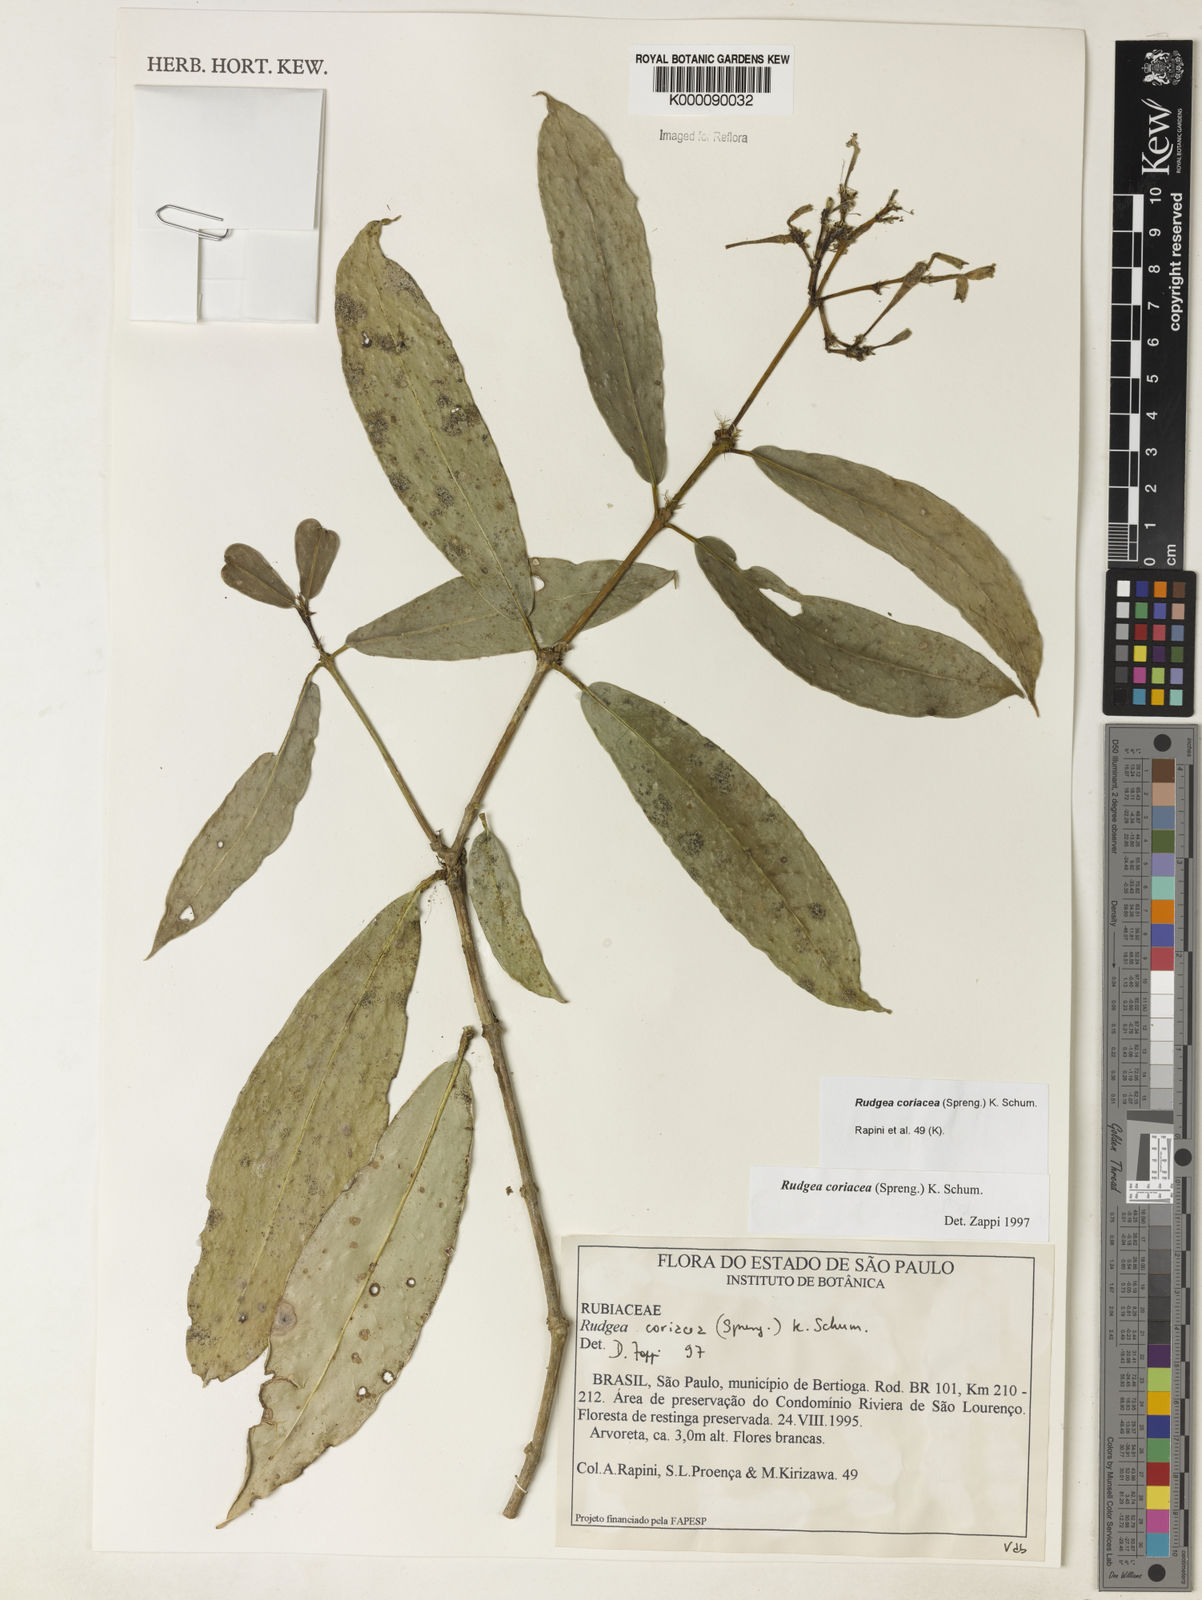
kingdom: Plantae
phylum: Tracheophyta
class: Magnoliopsida
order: Gentianales
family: Rubiaceae
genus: Rudgea
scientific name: Rudgea coriacea
